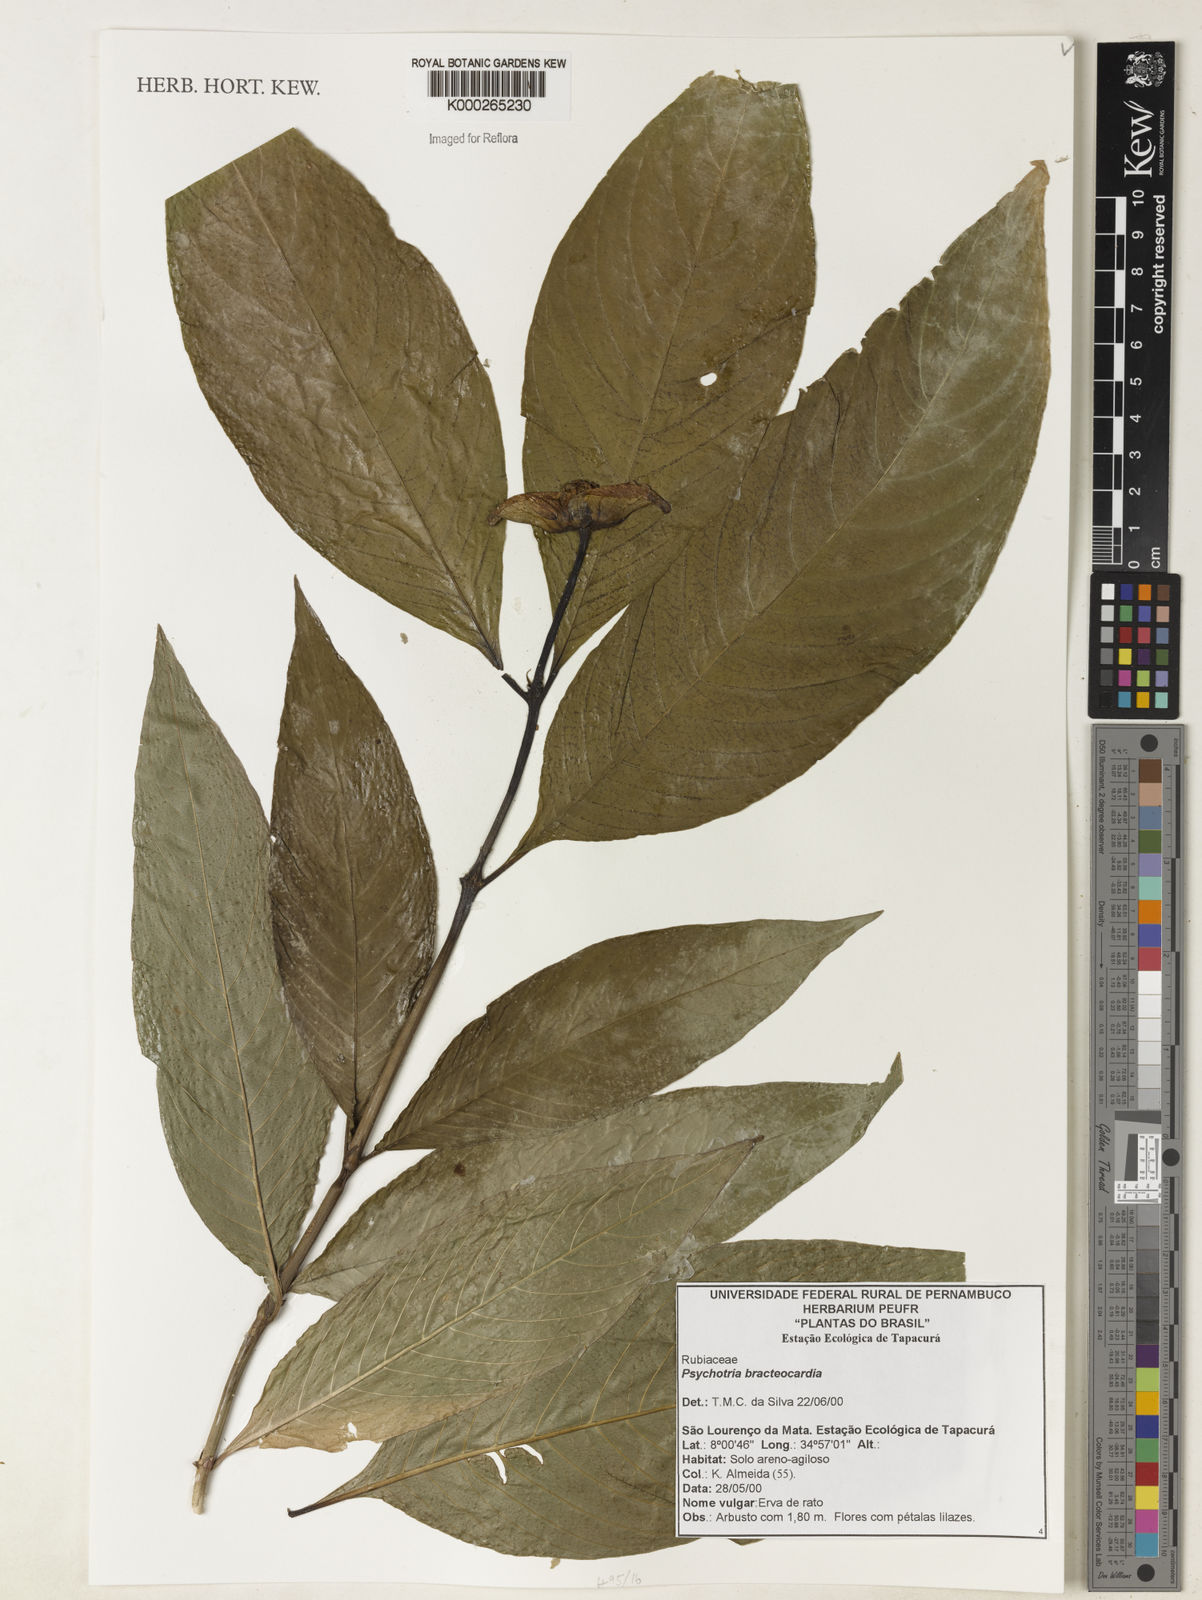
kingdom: Plantae
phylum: Tracheophyta
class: Magnoliopsida
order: Gentianales
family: Rubiaceae
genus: Psychotria
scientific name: Psychotria
